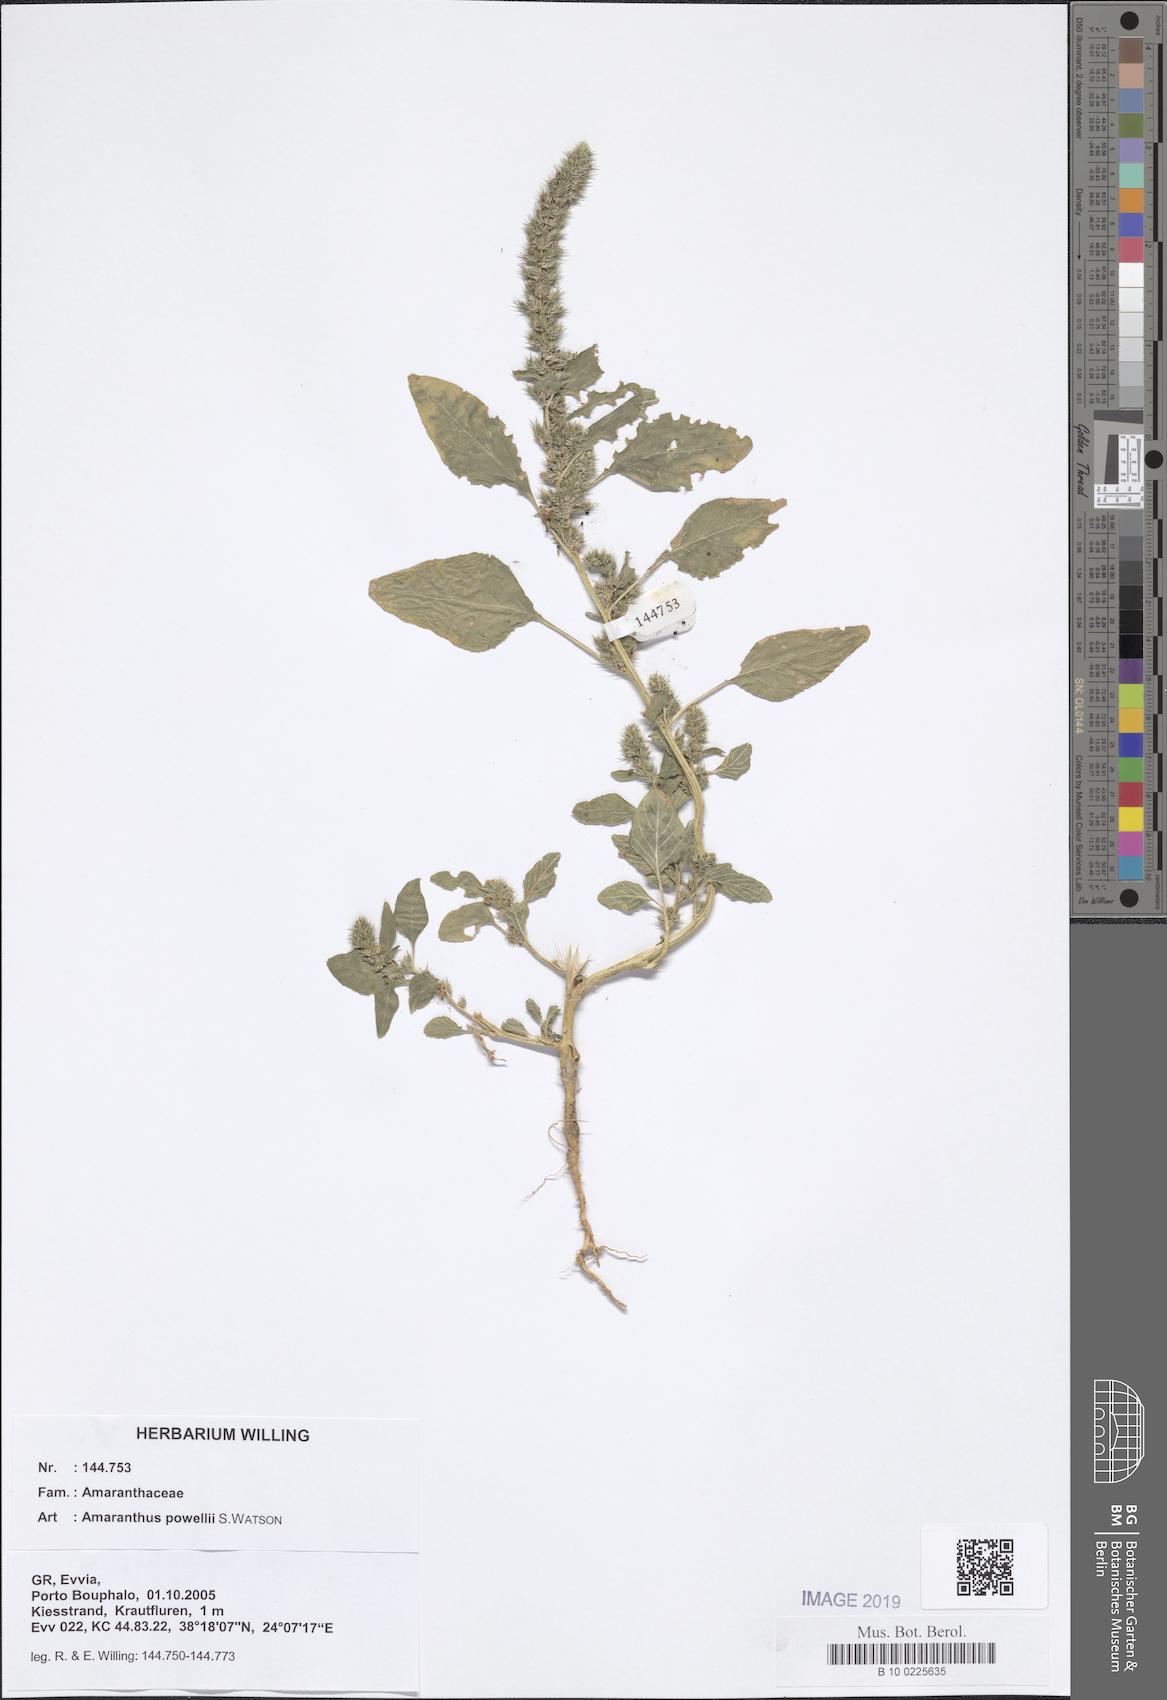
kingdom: Plantae
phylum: Tracheophyta
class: Magnoliopsida
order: Caryophyllales
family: Amaranthaceae
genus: Amaranthus
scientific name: Amaranthus powellii
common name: Powell's amaranth
